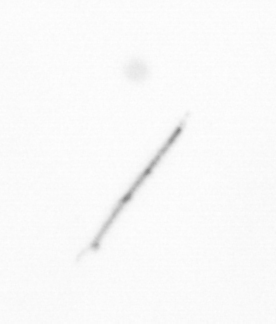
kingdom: Chromista
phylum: Ochrophyta
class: Bacillariophyceae
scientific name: Bacillariophyceae
